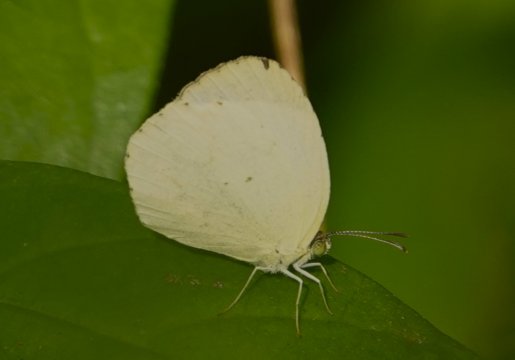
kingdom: Animalia
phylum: Arthropoda
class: Insecta
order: Lepidoptera
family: Pieridae
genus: Pyrisitia
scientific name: Pyrisitia nise
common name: Mimosa Yellow
